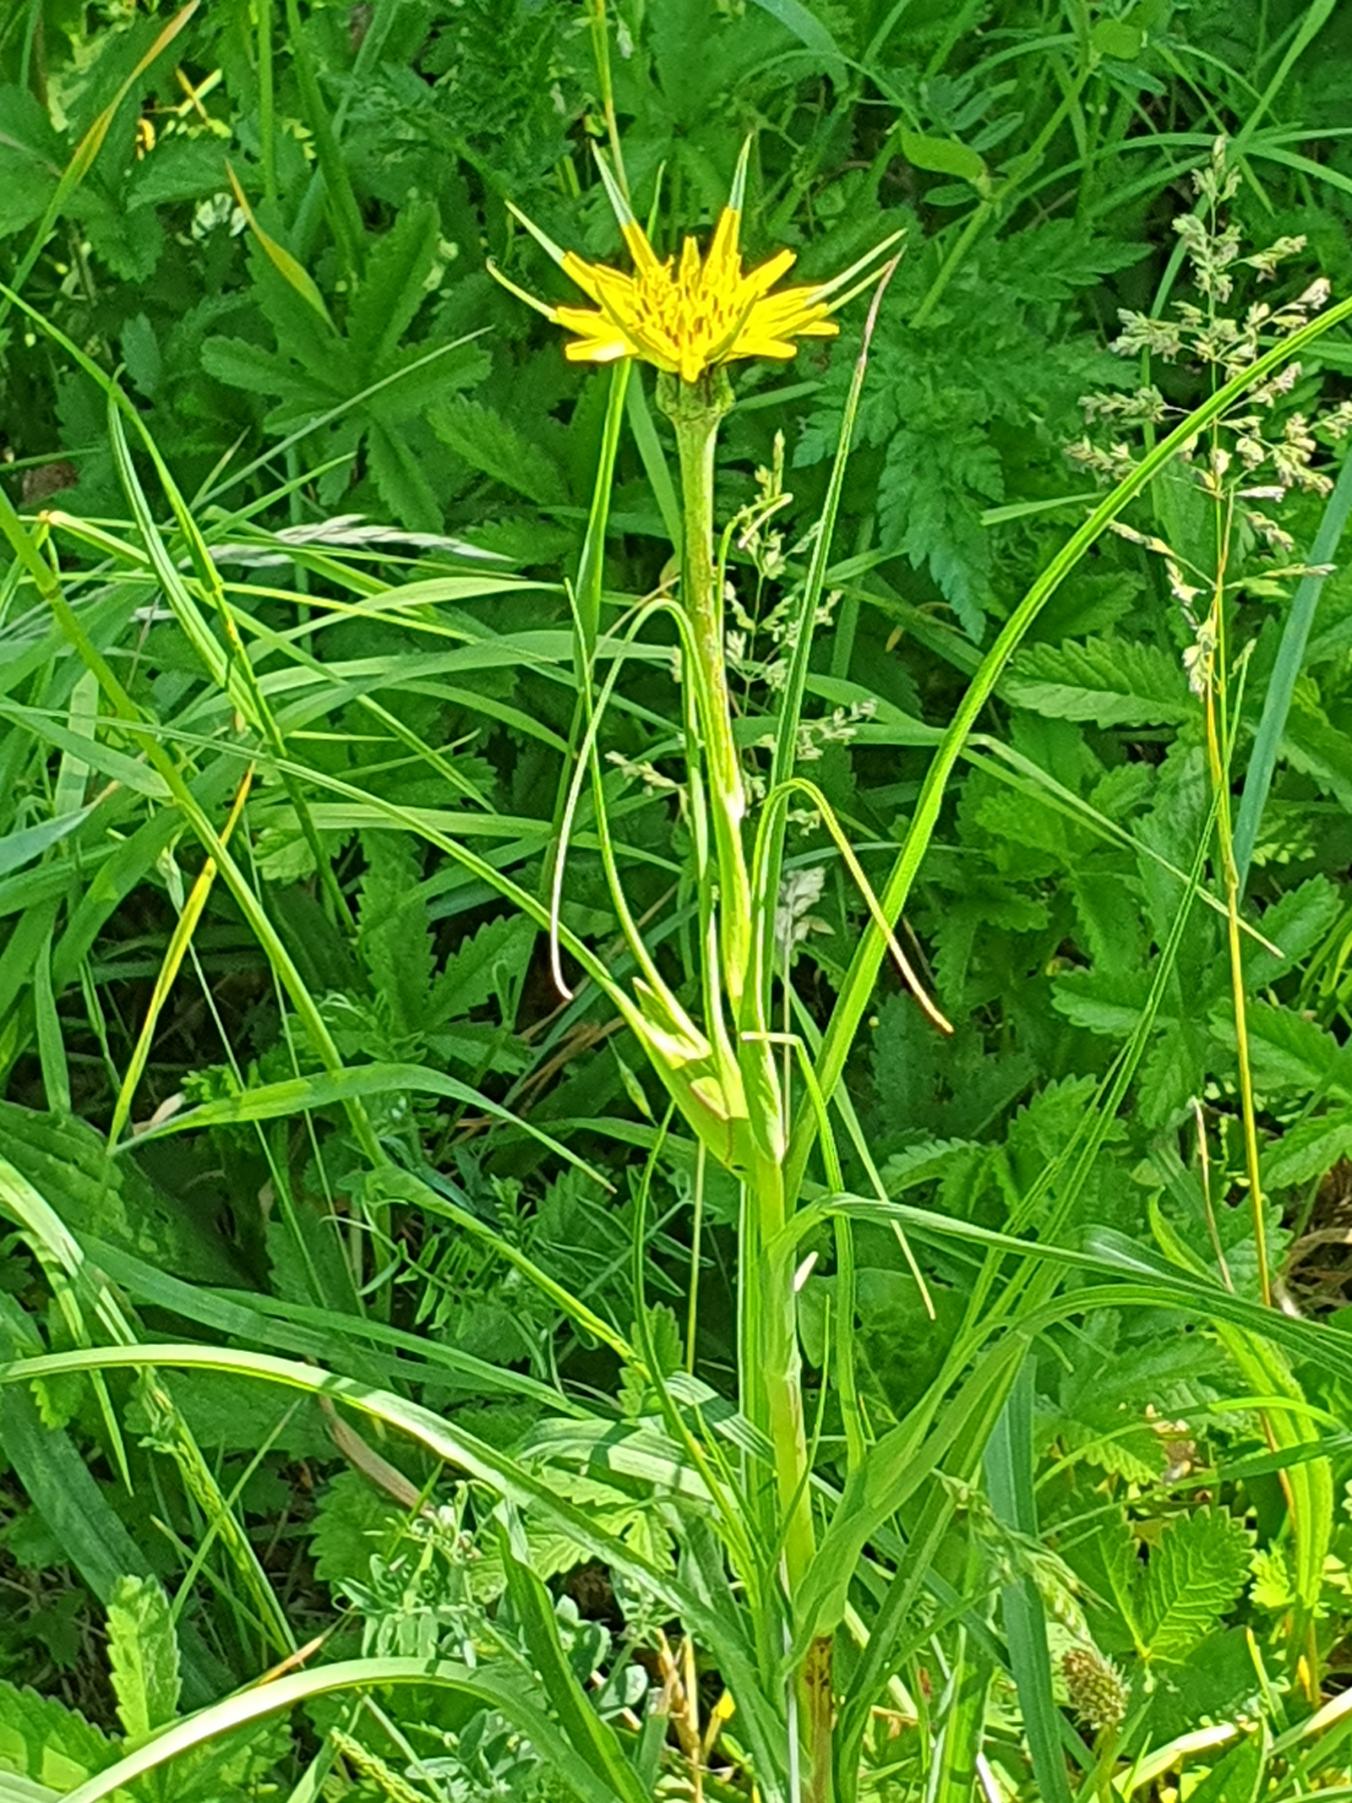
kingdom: Plantae
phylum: Tracheophyta
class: Magnoliopsida
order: Asterales
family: Asteraceae
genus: Tragopogon
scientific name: Tragopogon minor
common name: Småkronet gedeskæg
